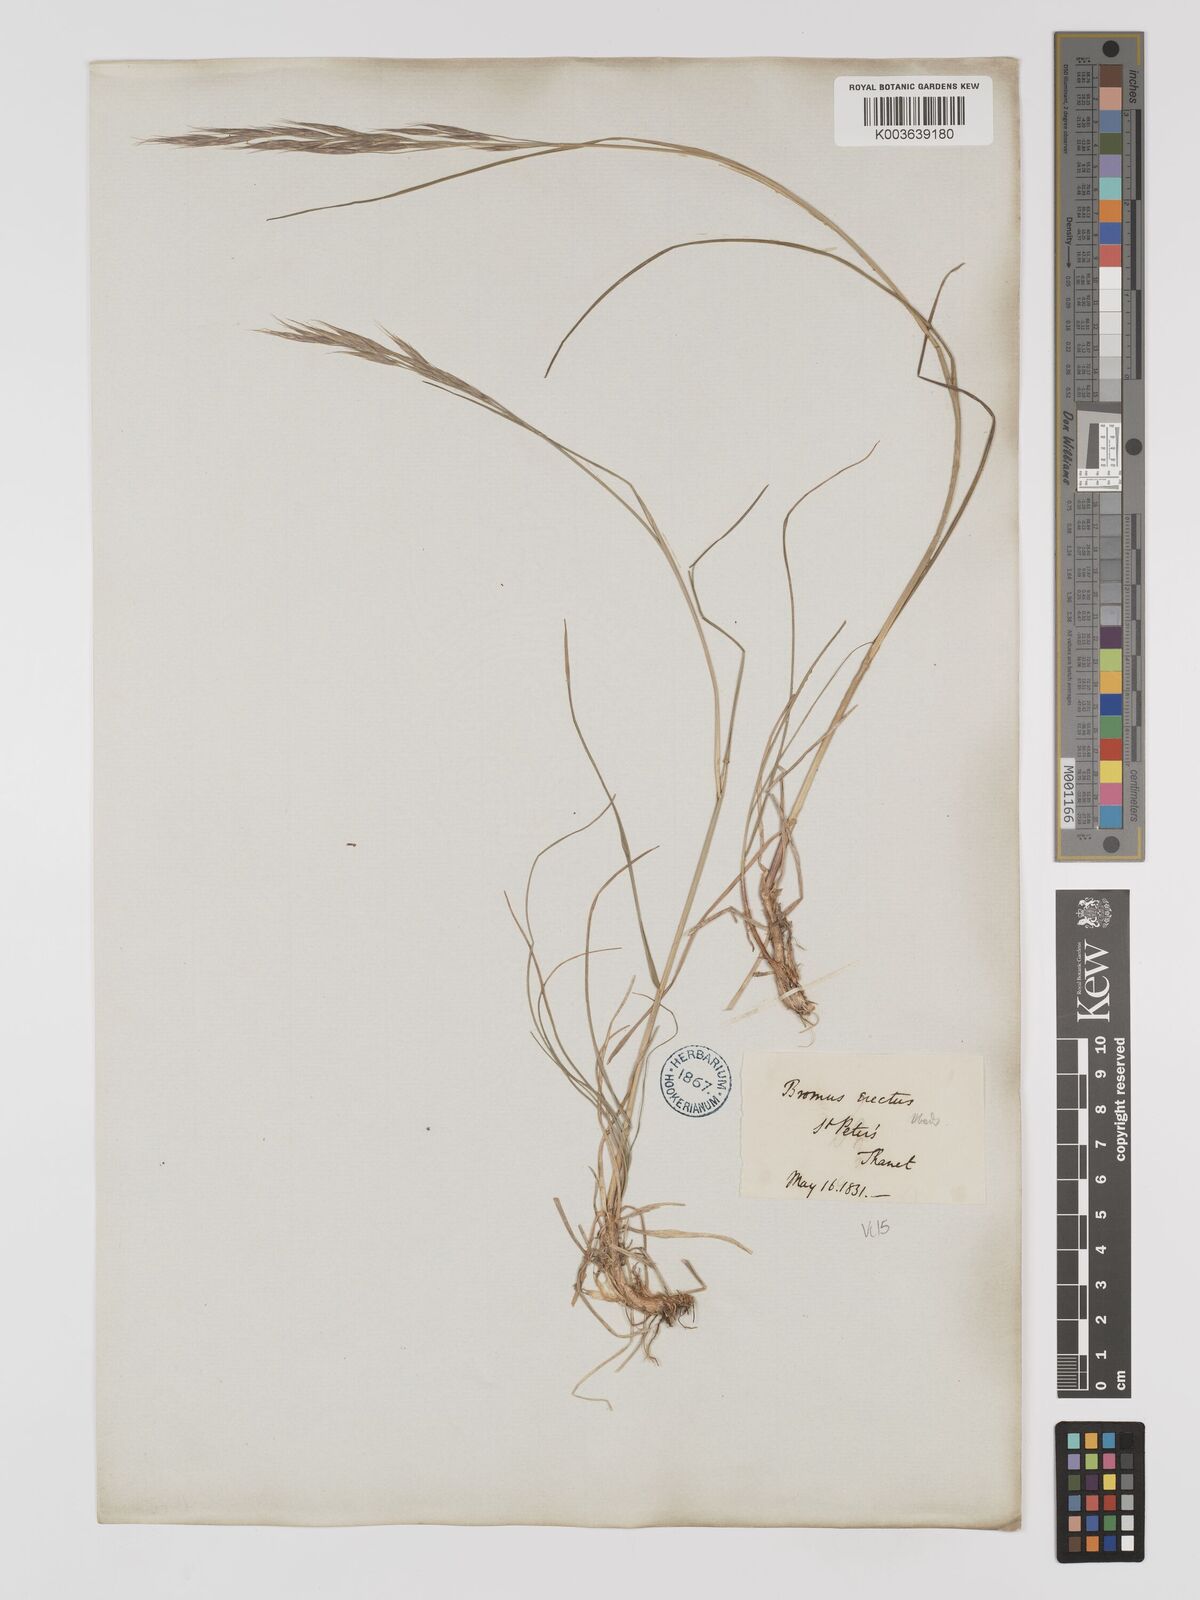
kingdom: Plantae
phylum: Tracheophyta
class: Liliopsida
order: Poales
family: Poaceae
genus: Bromus
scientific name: Bromus erectus
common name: Erect brome
